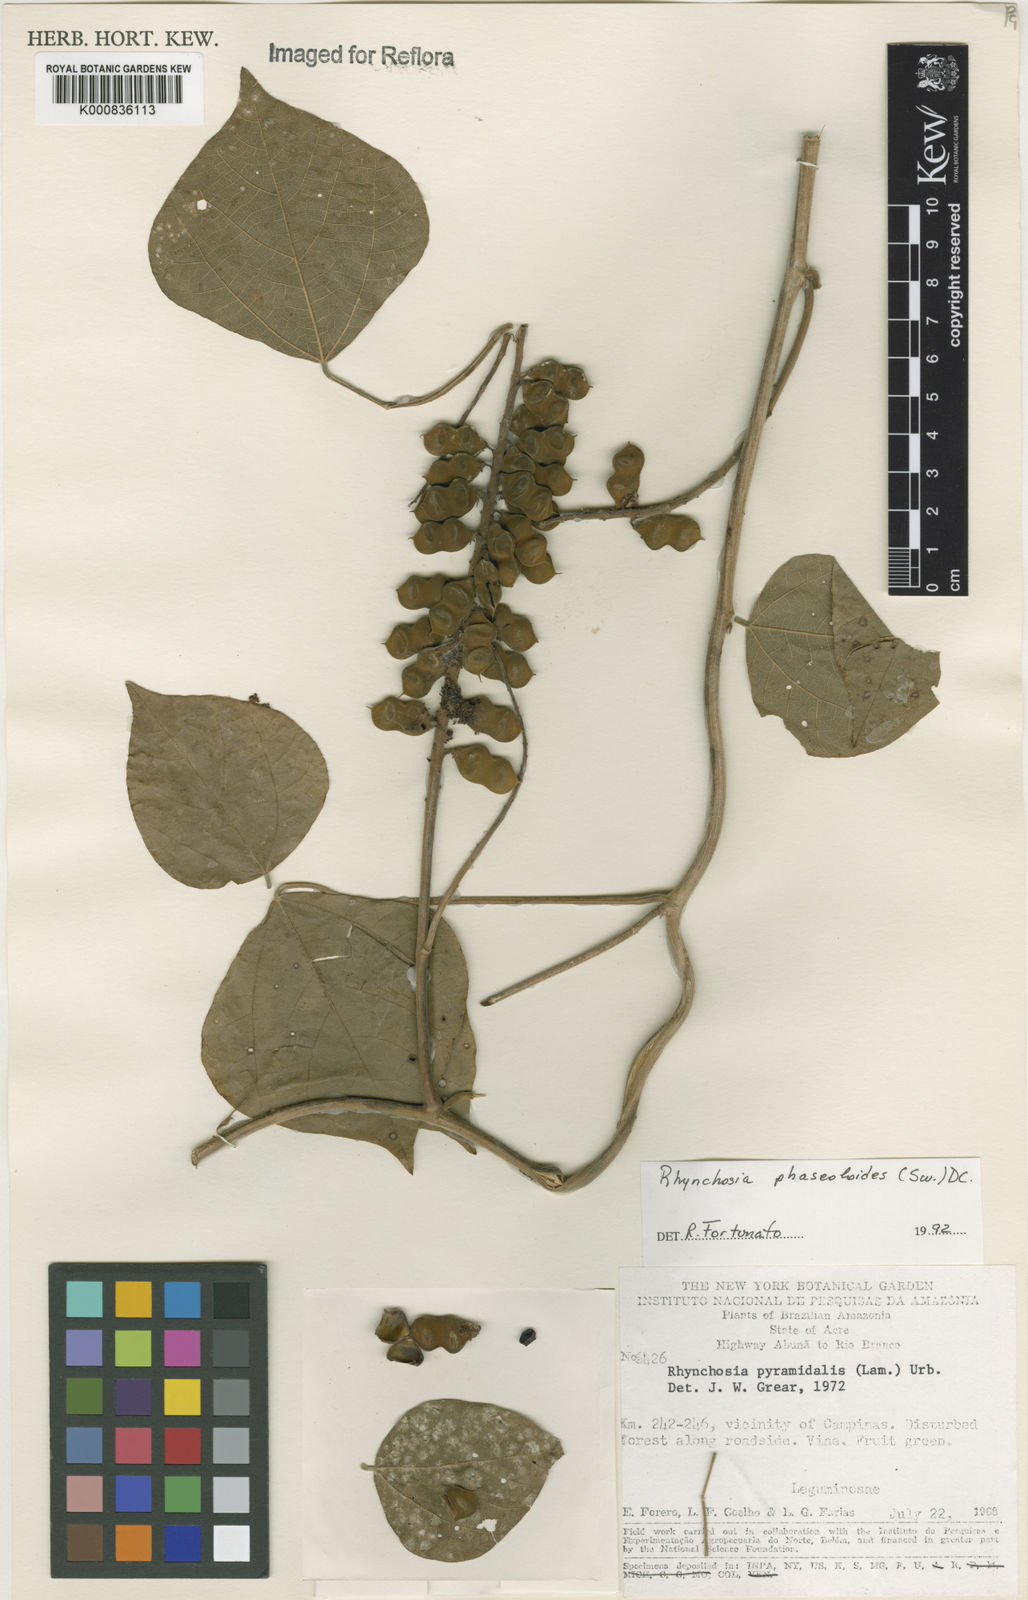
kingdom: Plantae
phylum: Tracheophyta
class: Magnoliopsida
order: Fabales
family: Fabaceae
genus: Rhynchosia
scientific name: Rhynchosia phaseoloides
